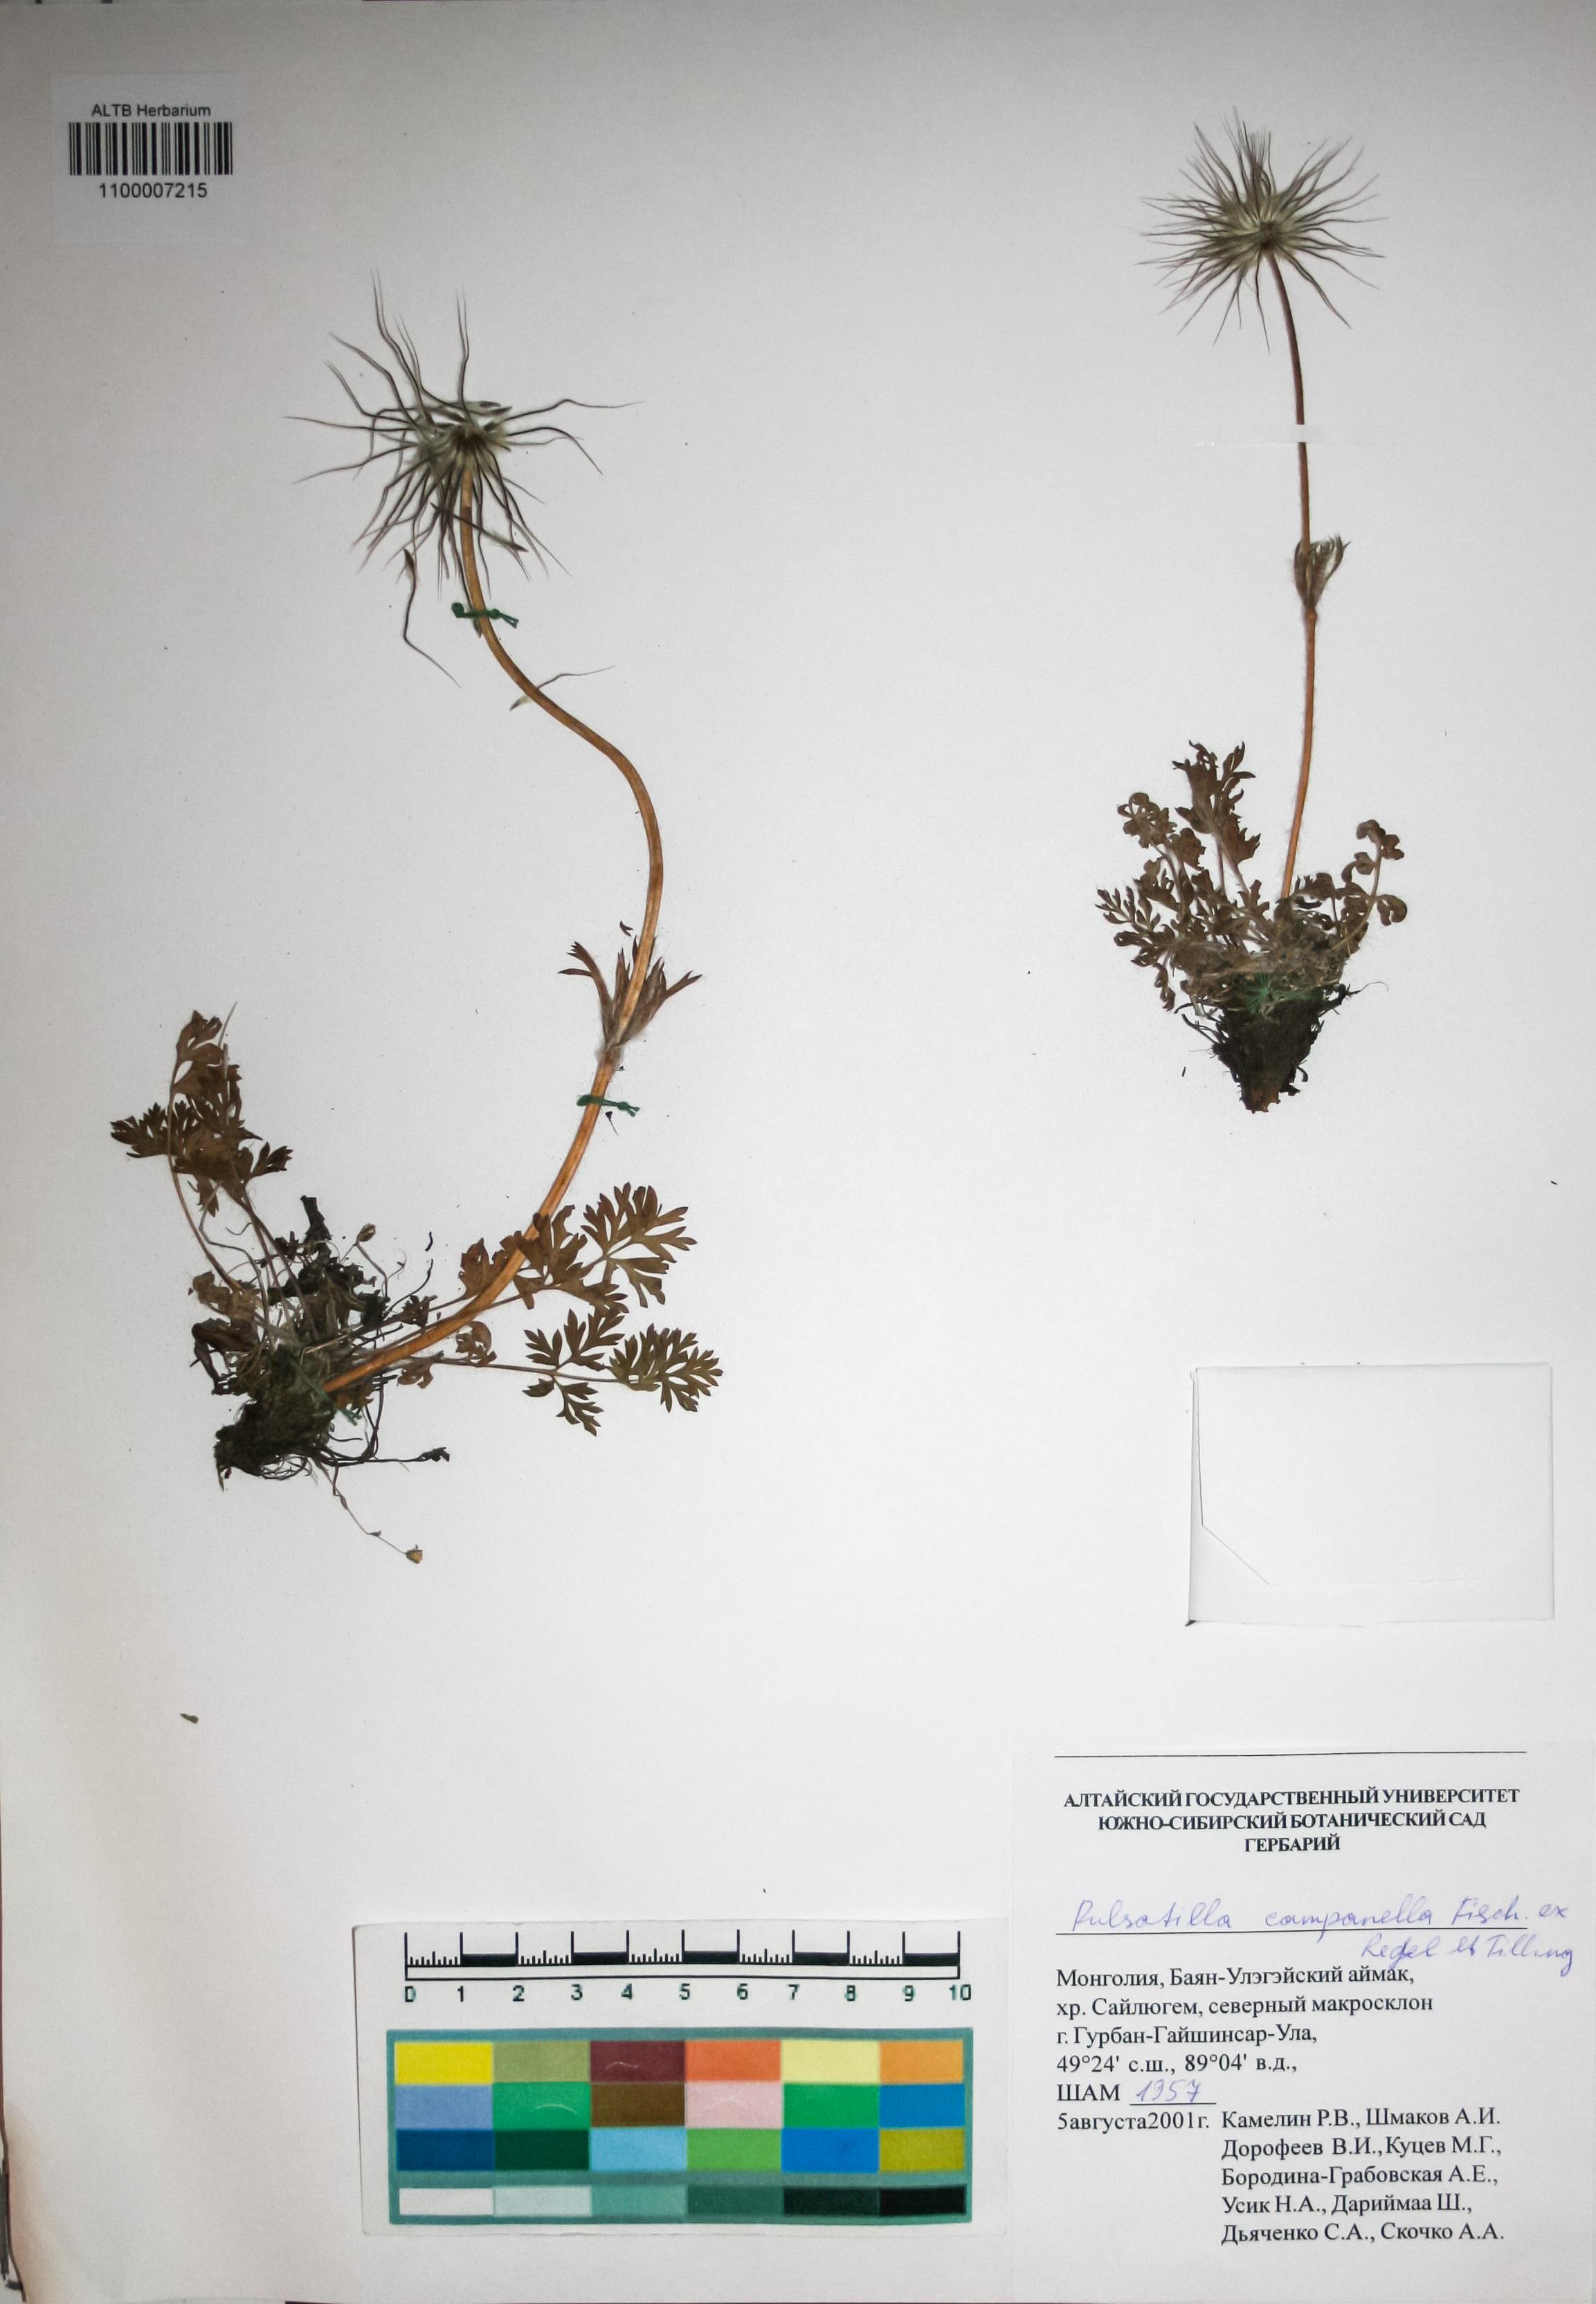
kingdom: Plantae
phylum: Tracheophyta
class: Magnoliopsida
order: Ranunculales
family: Ranunculaceae
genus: Pulsatilla
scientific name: Pulsatilla campanella
